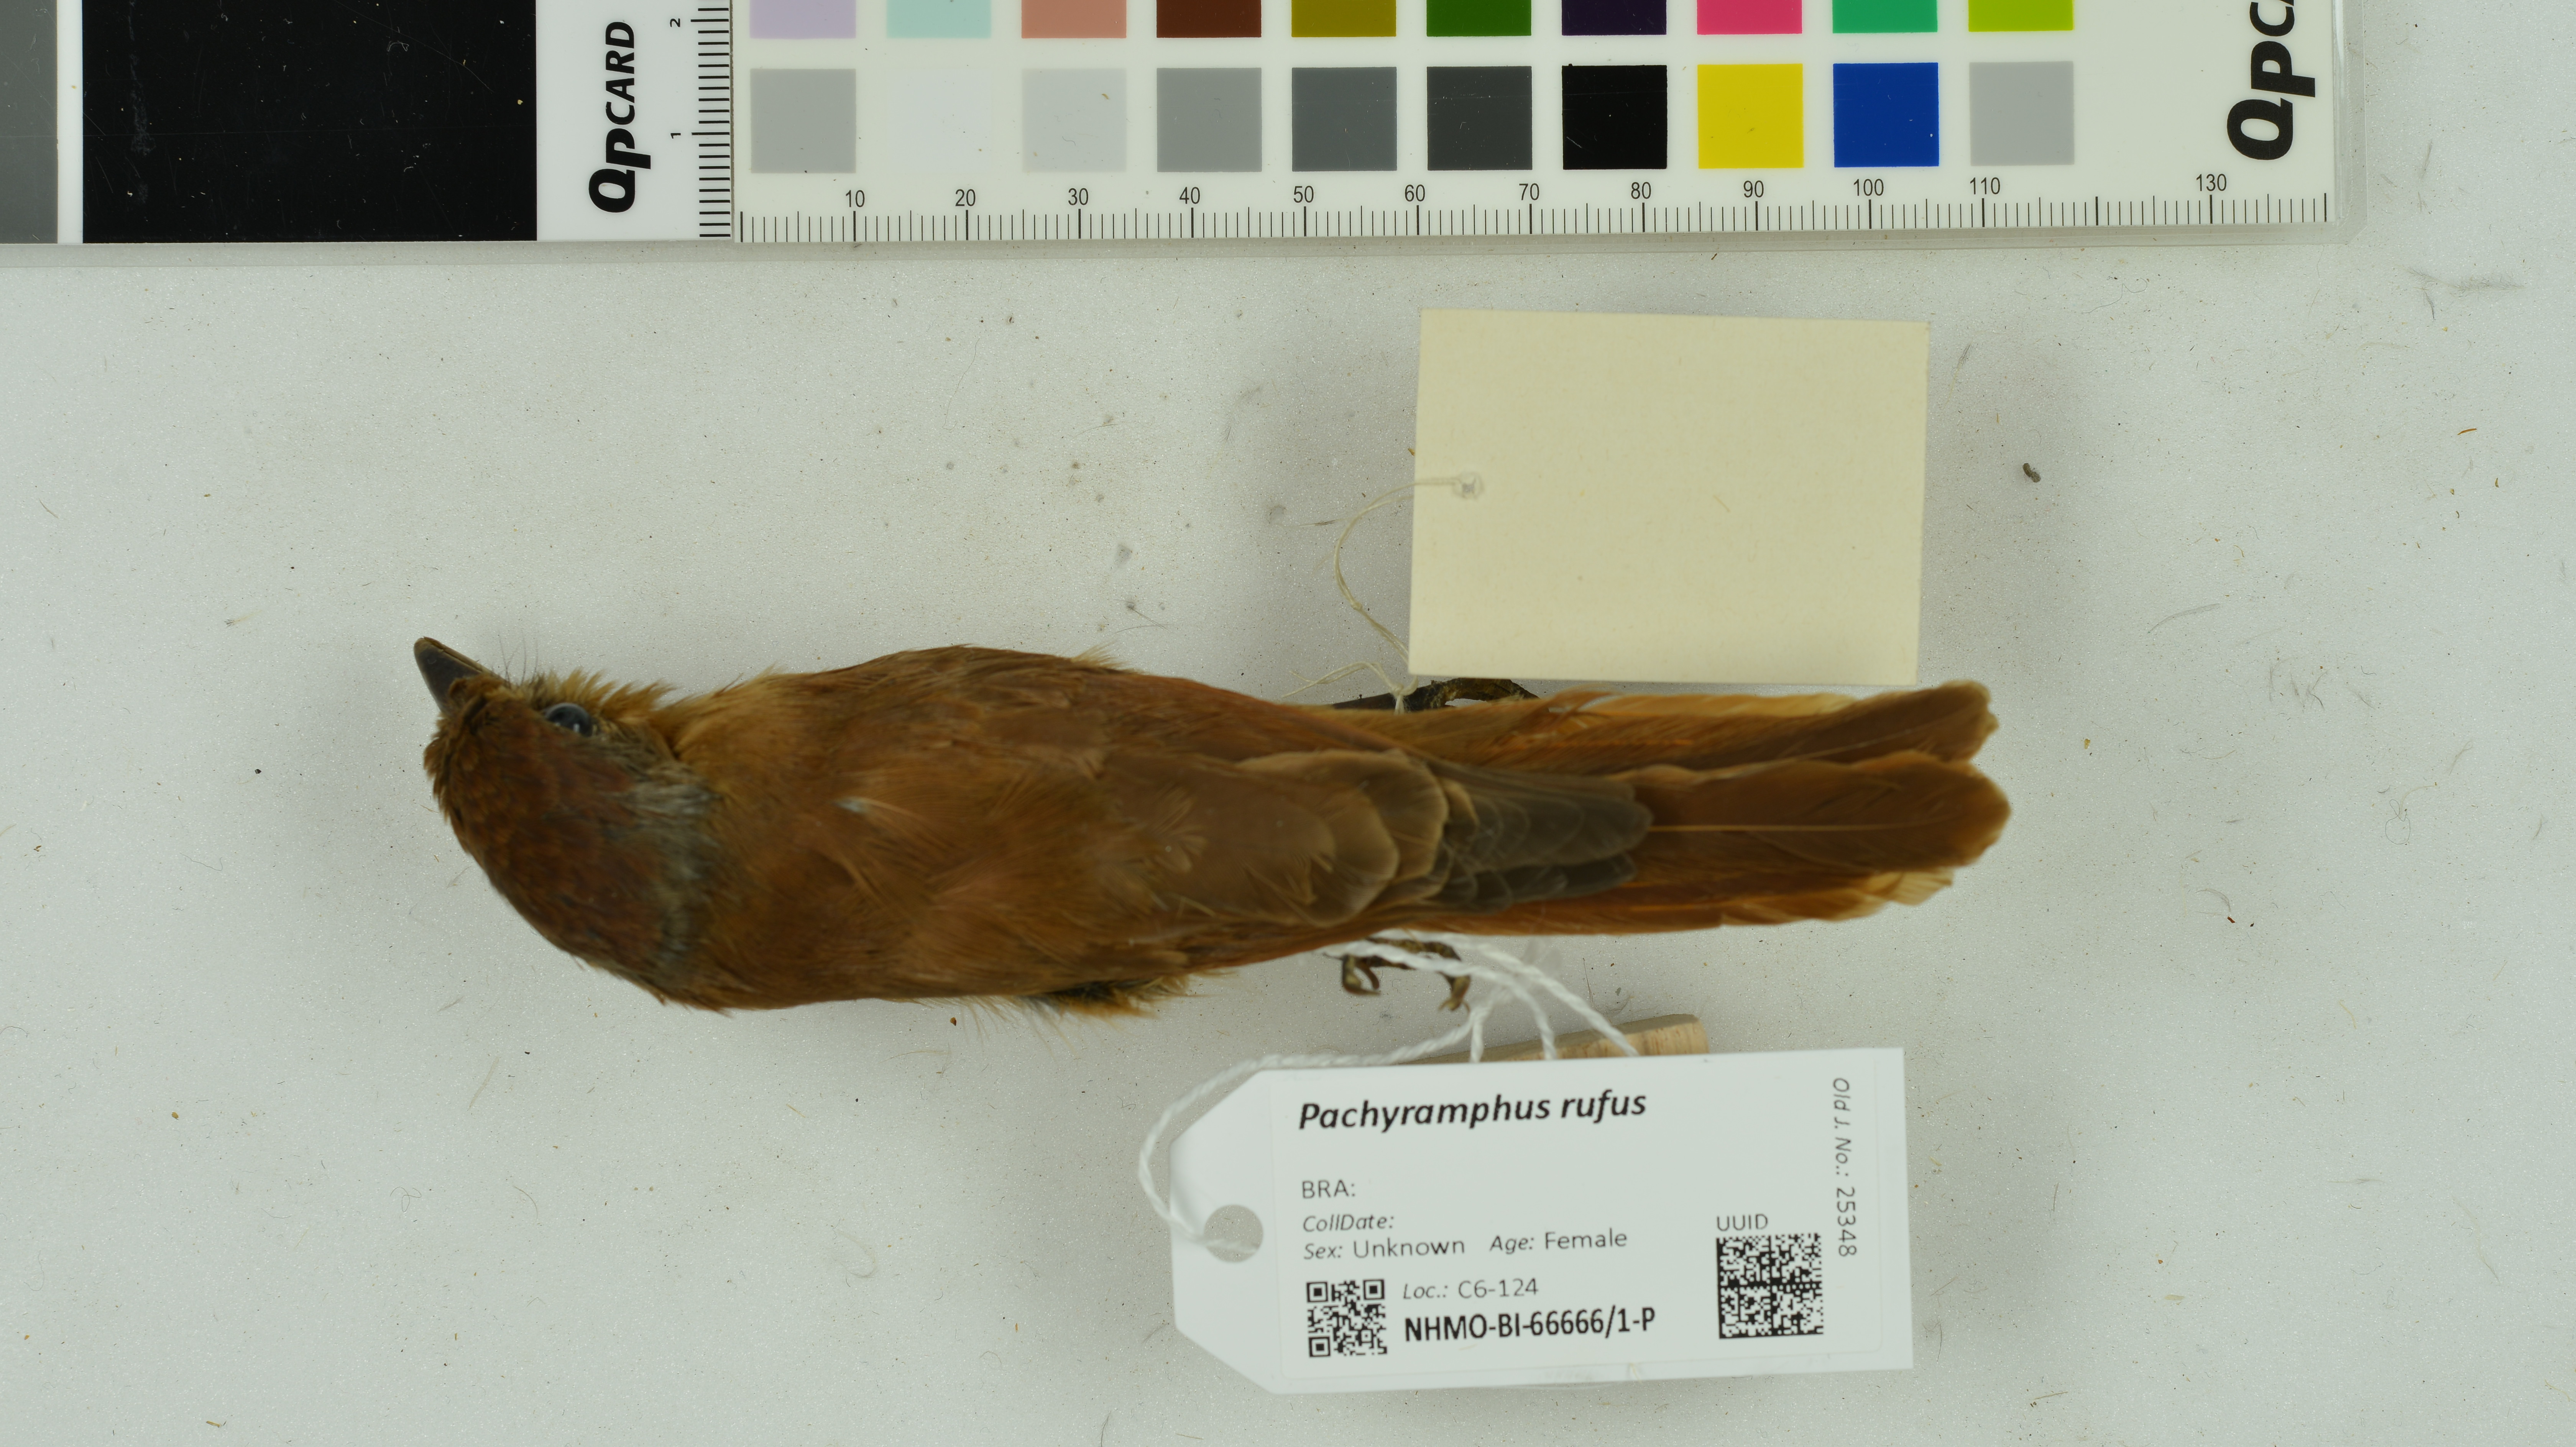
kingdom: Animalia
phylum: Chordata
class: Aves
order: Passeriformes
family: Cotingidae
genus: Pachyramphus
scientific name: Pachyramphus rufus
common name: Cinereous becard
